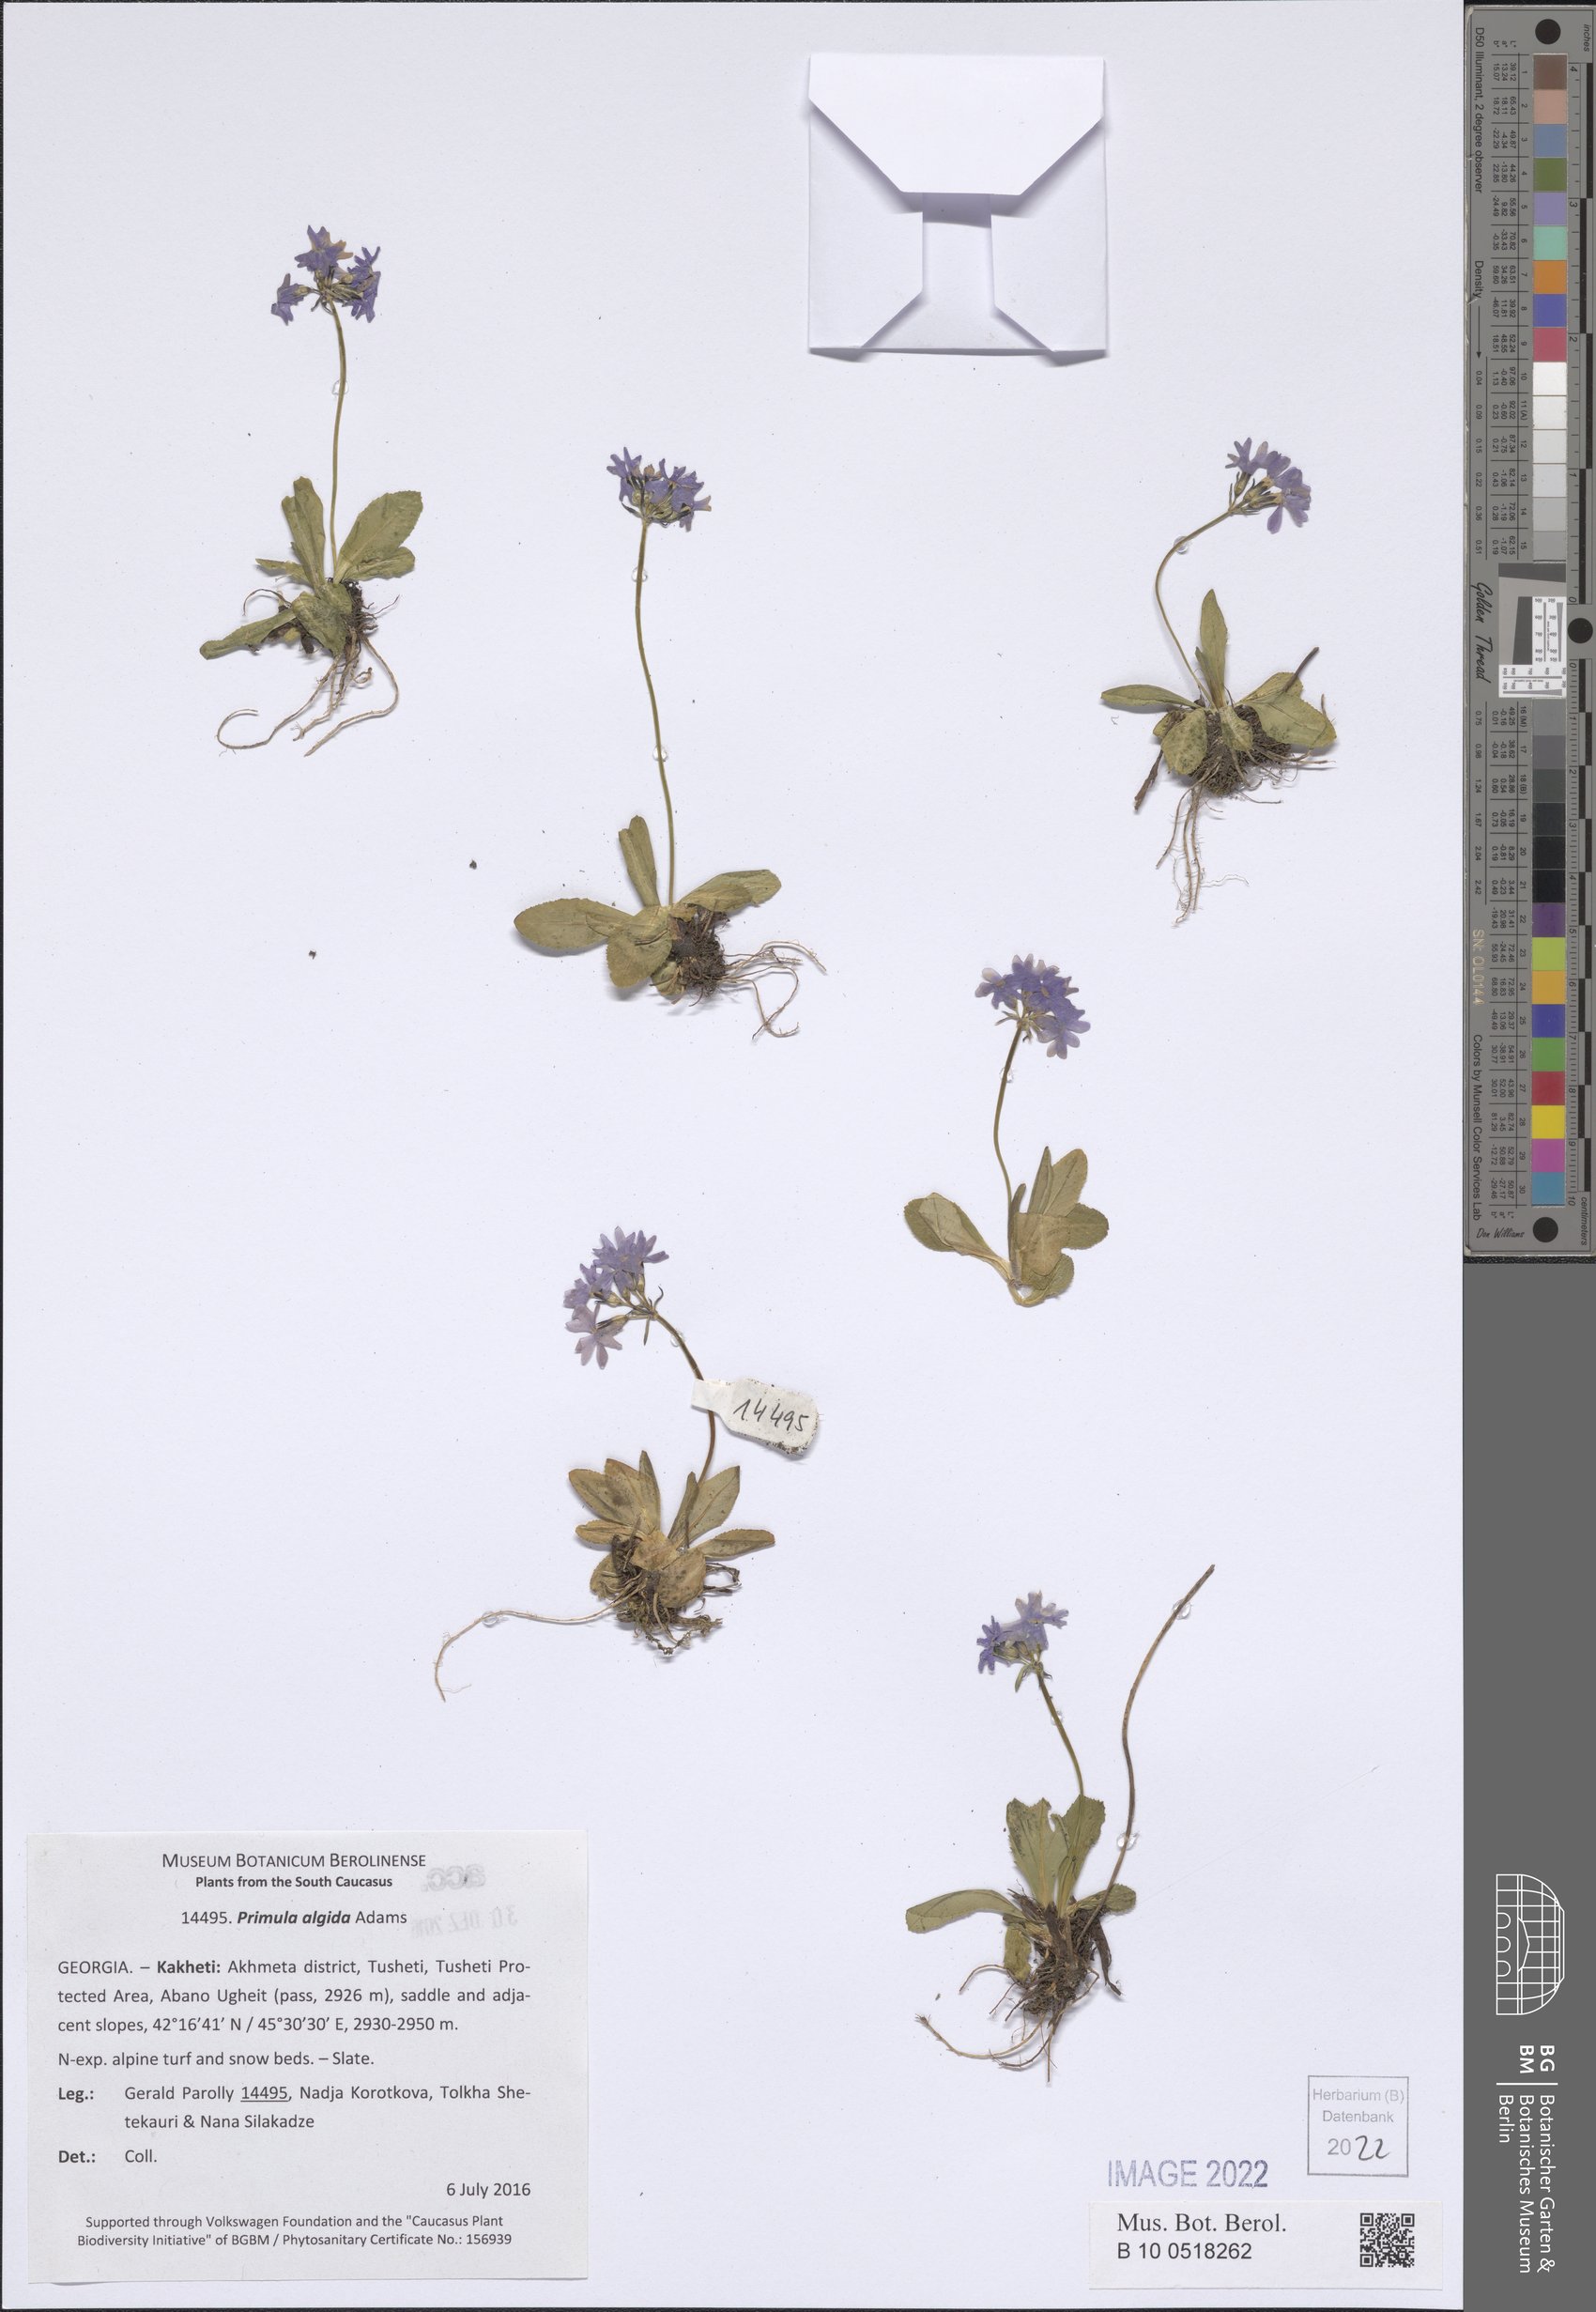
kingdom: Plantae
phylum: Tracheophyta
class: Magnoliopsida
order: Ericales
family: Primulaceae
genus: Primula
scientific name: Primula algida
